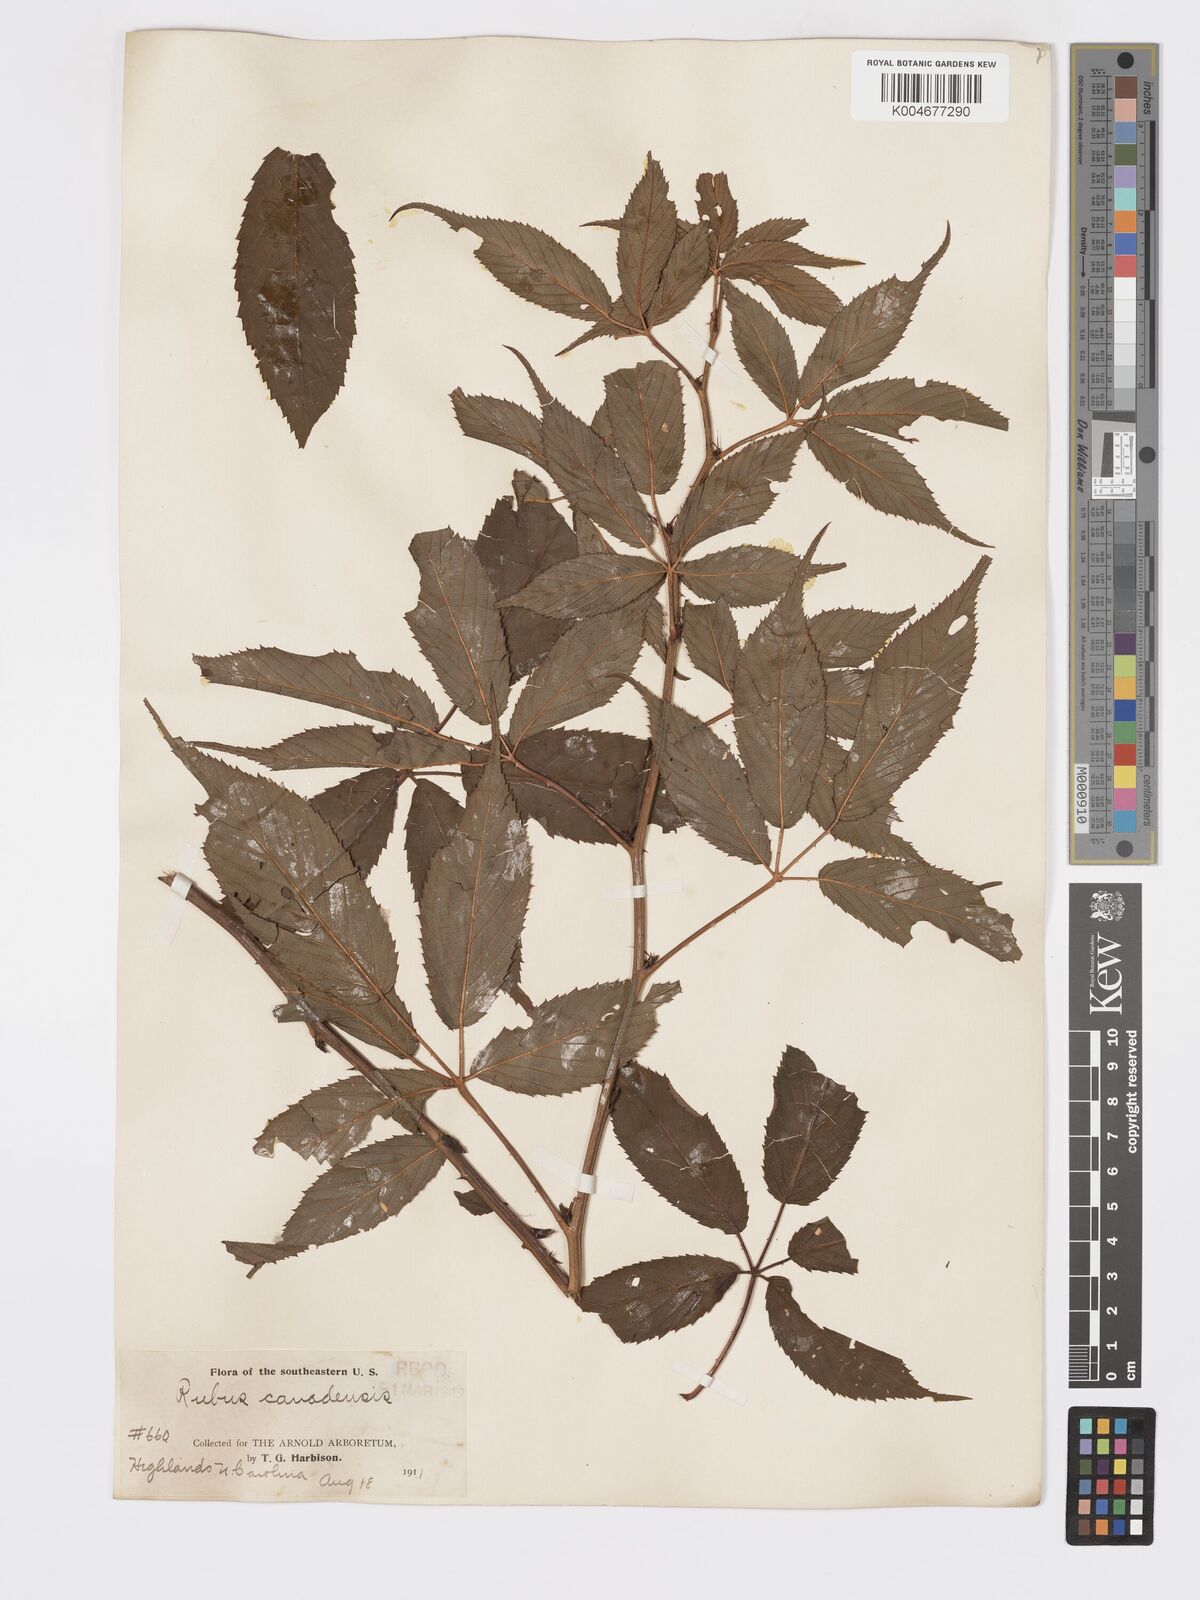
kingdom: Plantae
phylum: Tracheophyta
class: Magnoliopsida
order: Rosales
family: Rosaceae
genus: Rubus
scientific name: Rubus canadensis
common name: Smooth blackberry
